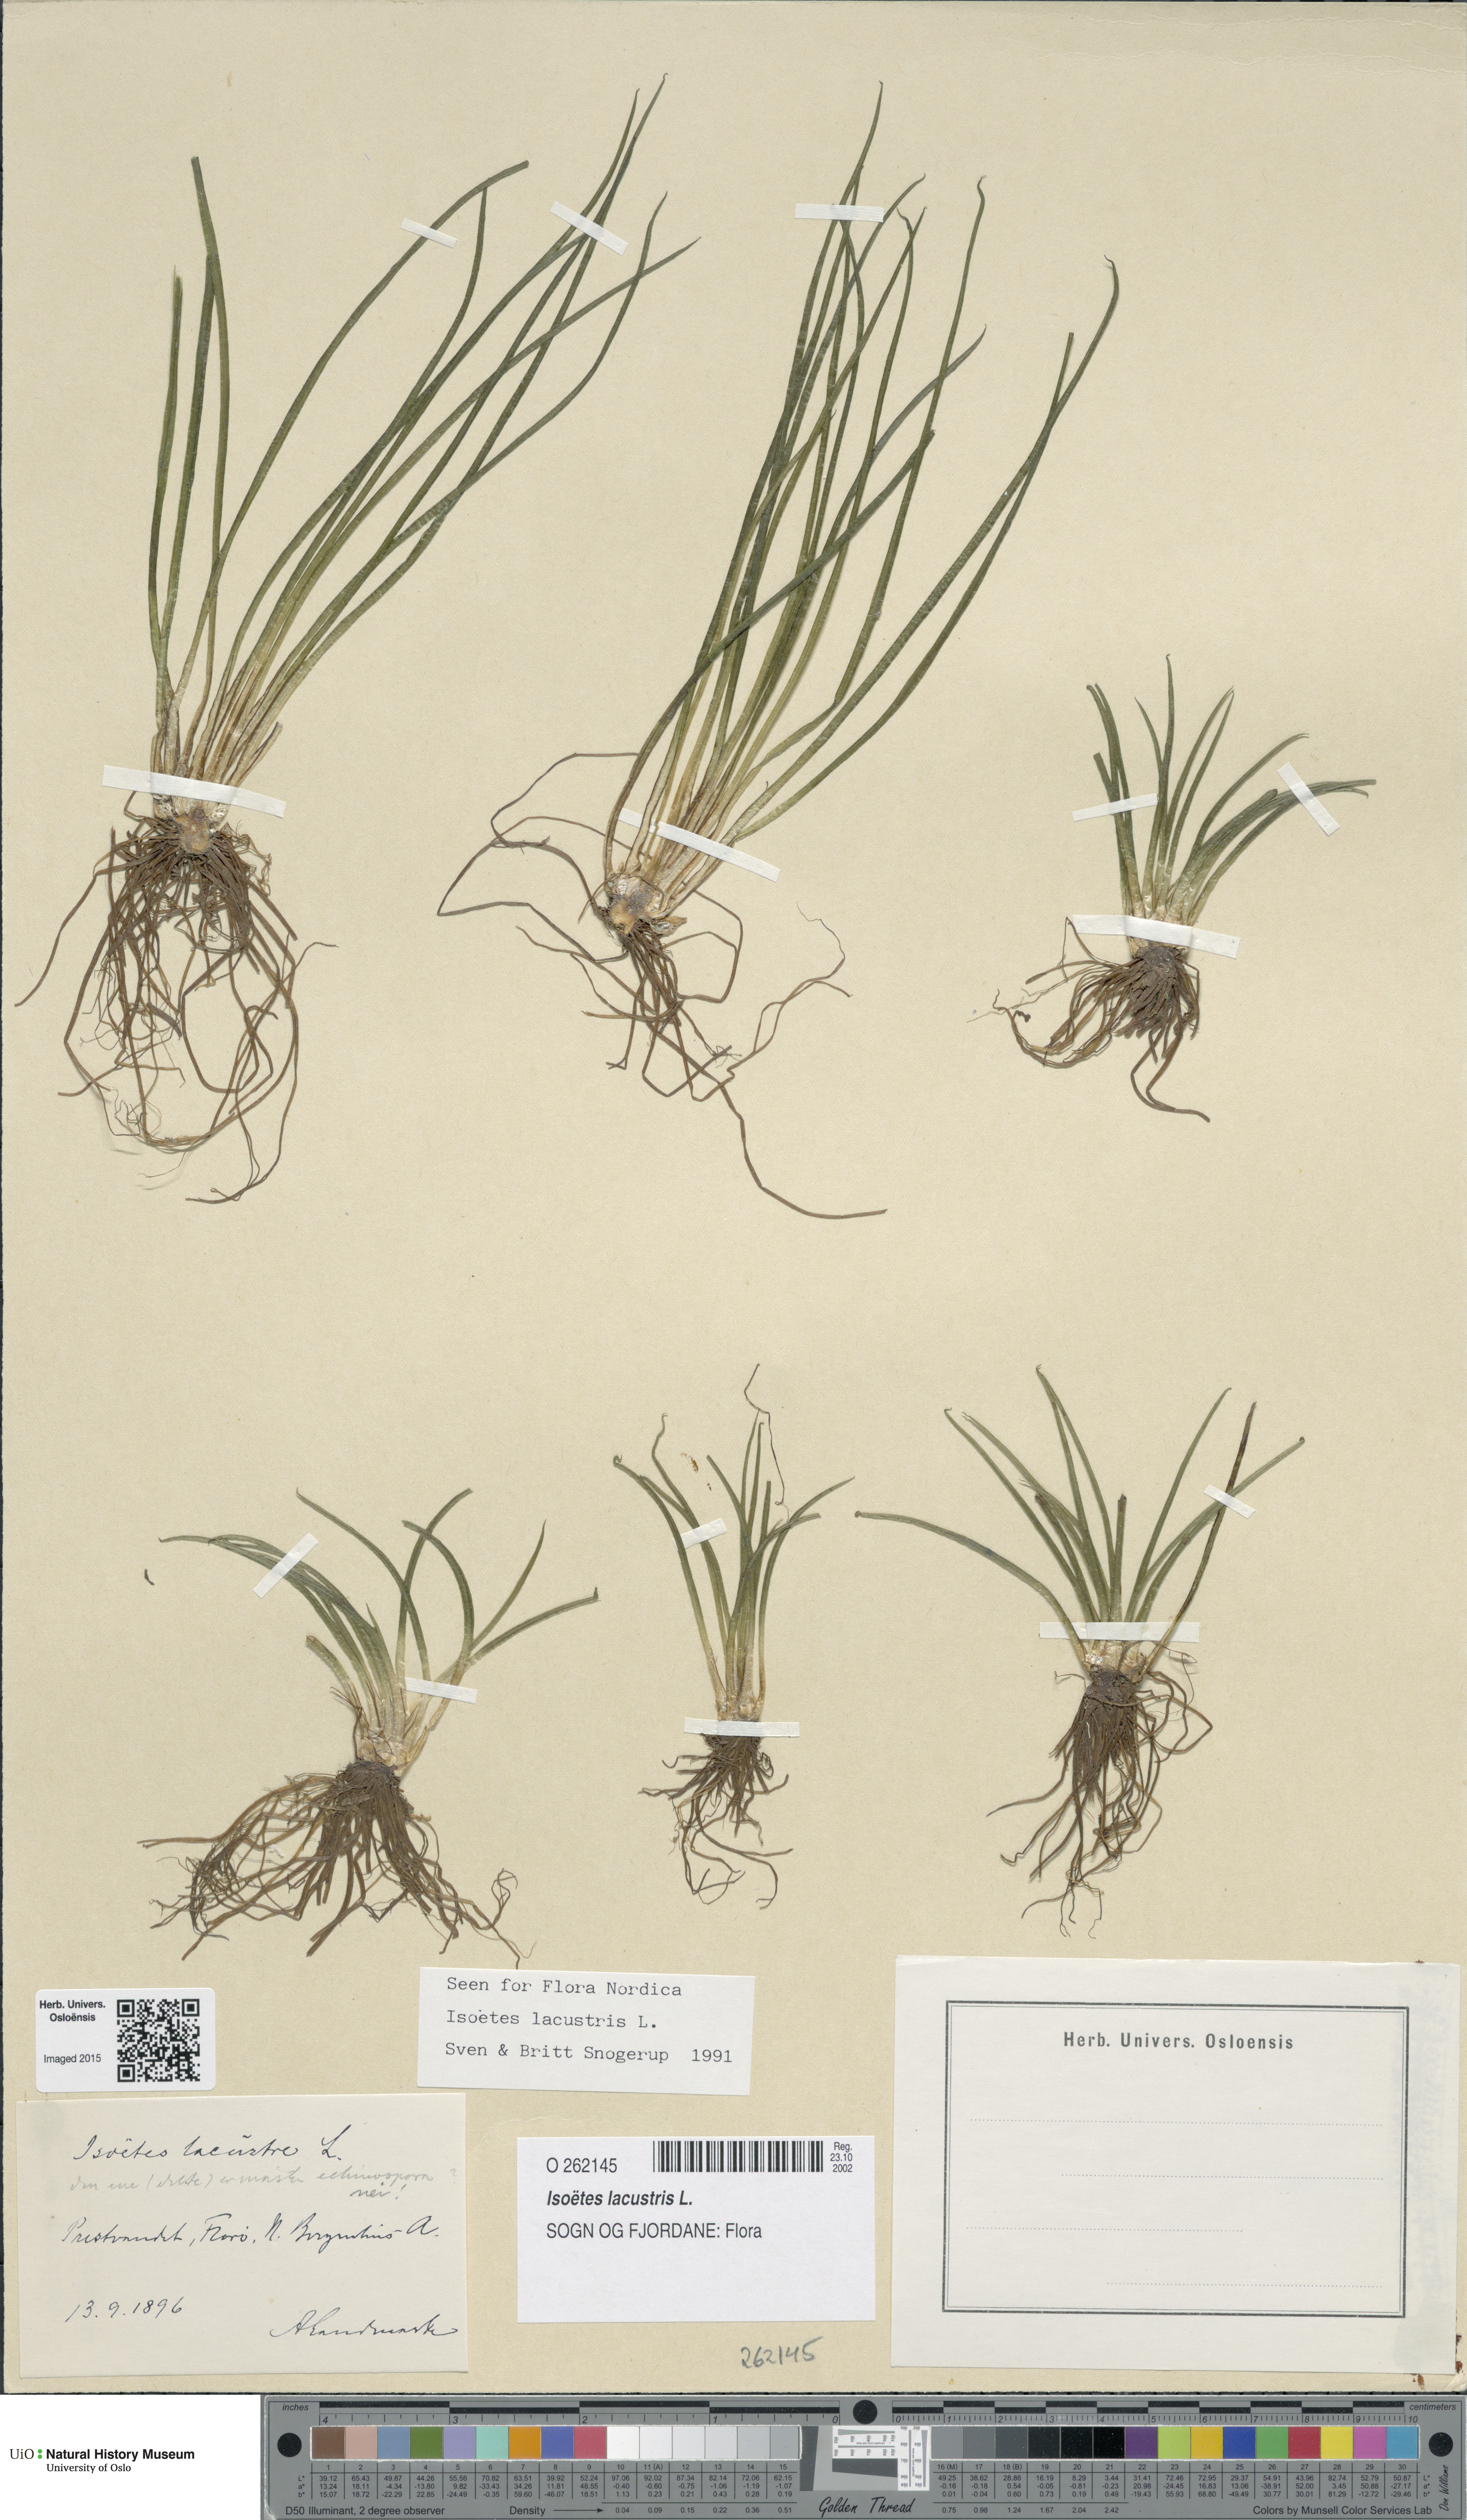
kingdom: Plantae
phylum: Tracheophyta
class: Lycopodiopsida
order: Isoetales
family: Isoetaceae
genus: Isoetes
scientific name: Isoetes lacustris
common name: Common quillwort
